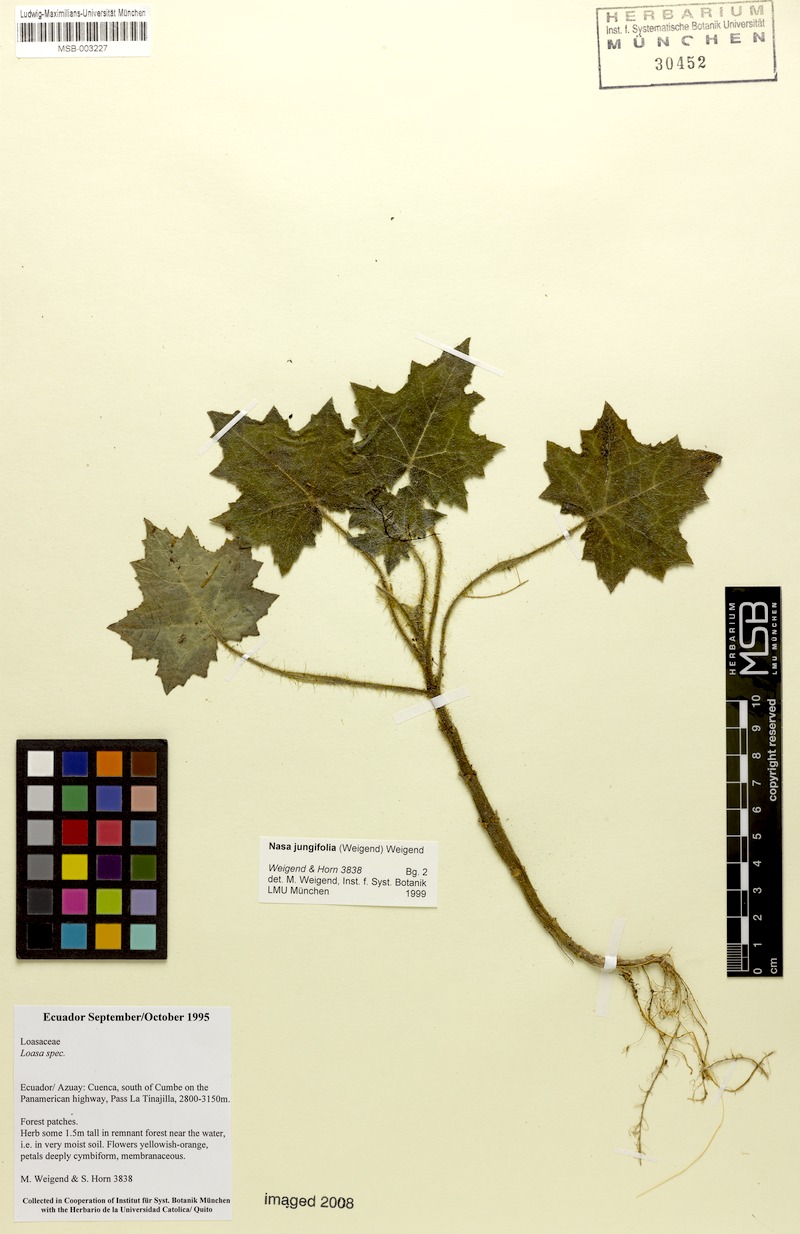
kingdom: Plantae
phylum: Tracheophyta
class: Magnoliopsida
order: Cornales
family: Loasaceae
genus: Nasa
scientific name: Nasa jungiifolia
